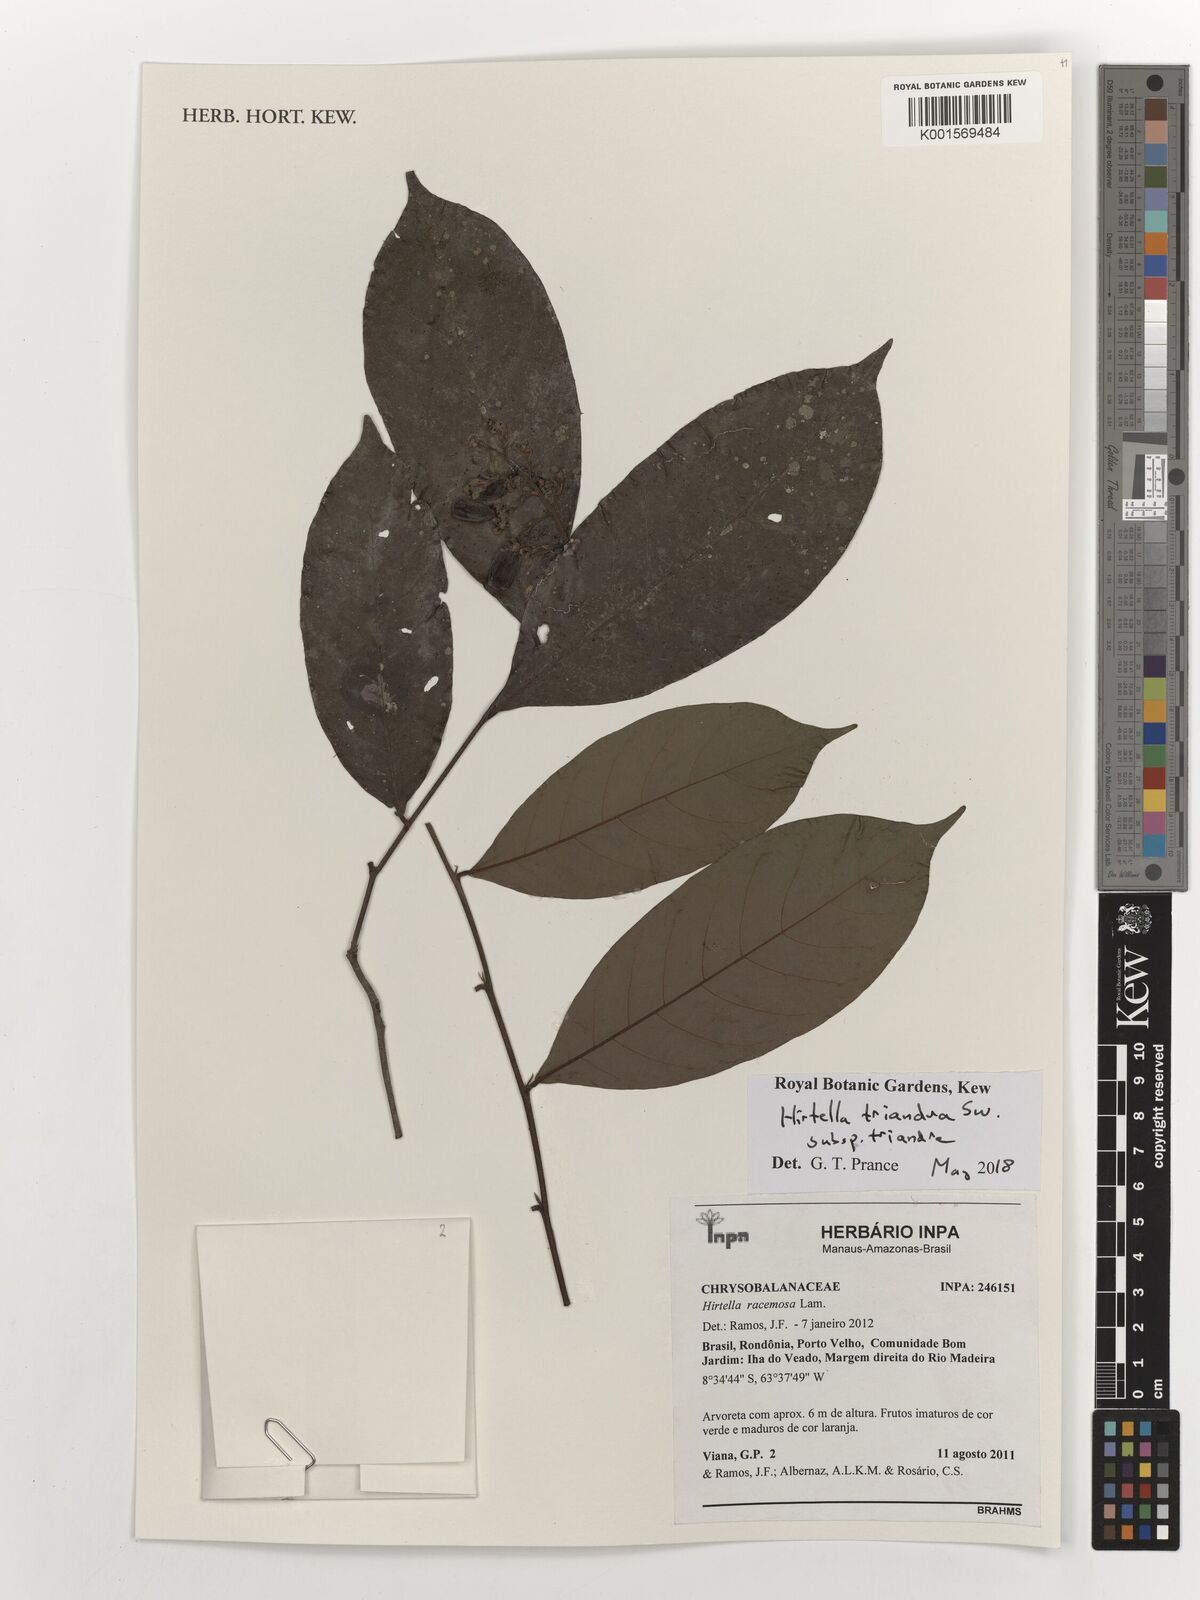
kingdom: Plantae
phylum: Tracheophyta
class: Magnoliopsida
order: Malpighiales
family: Chrysobalanaceae
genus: Hirtella
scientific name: Hirtella triandra
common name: Hairy plum
